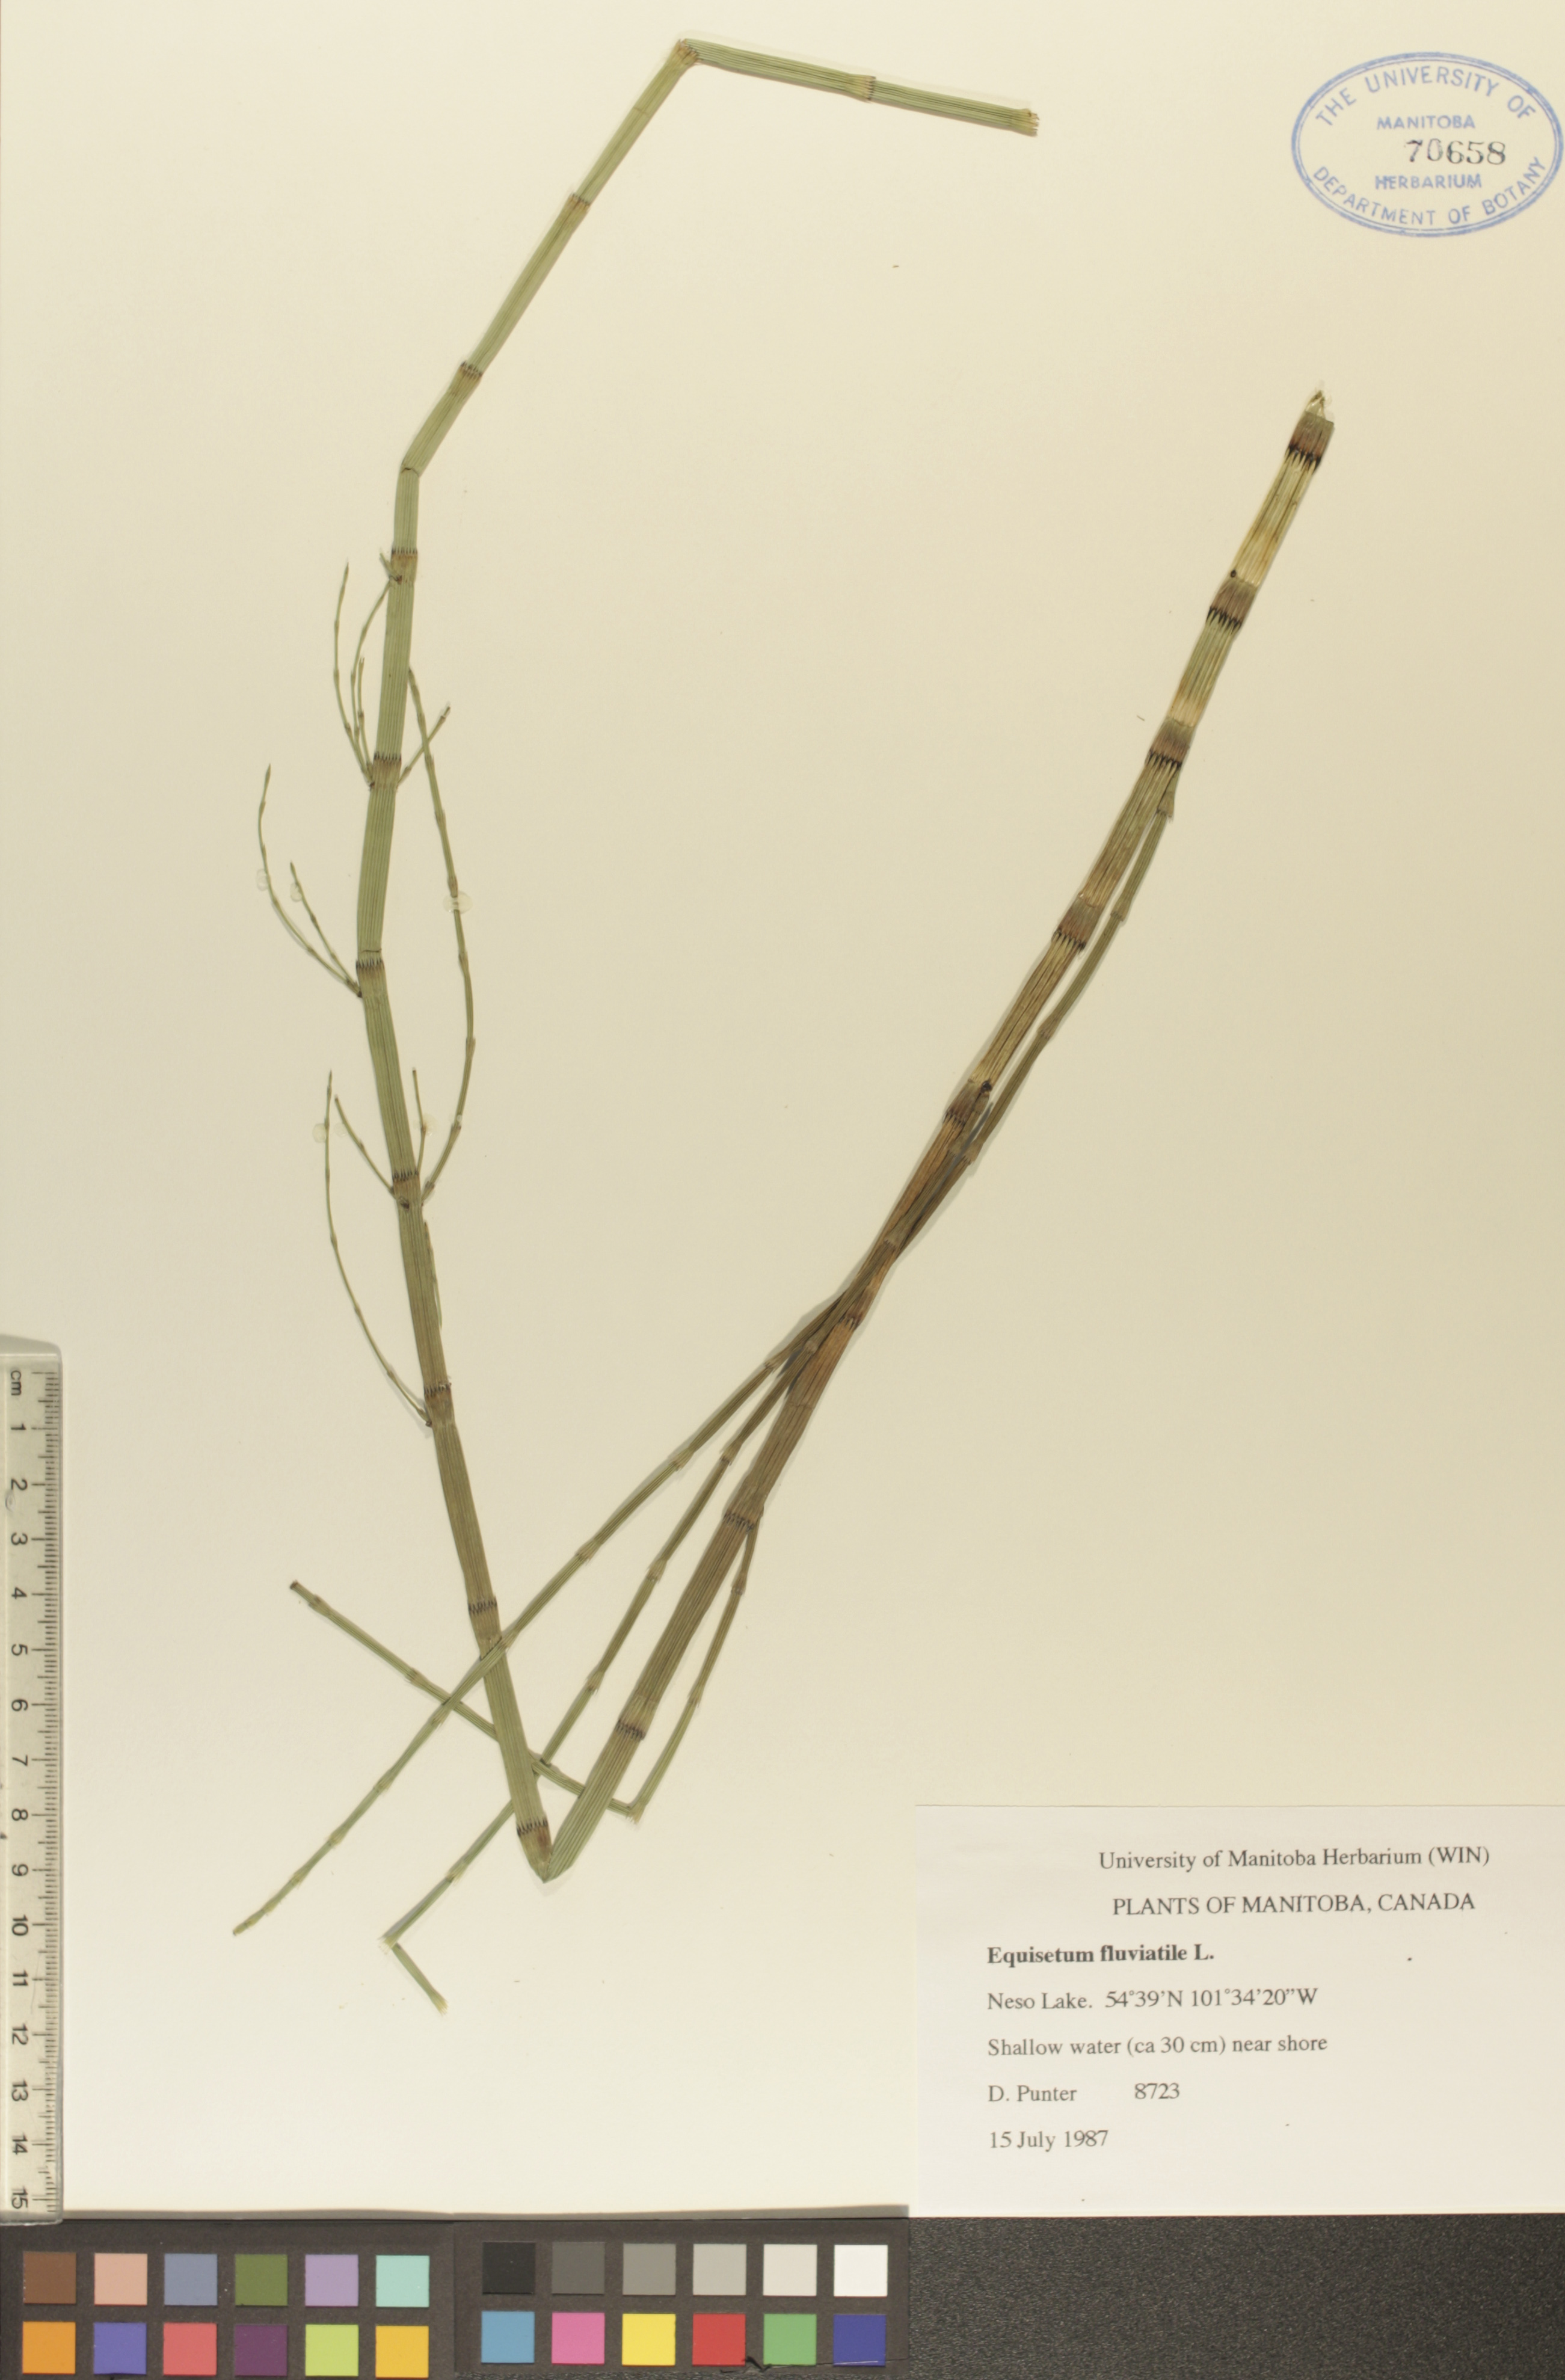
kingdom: Plantae
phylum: Tracheophyta
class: Polypodiopsida
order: Equisetales
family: Equisetaceae
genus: Equisetum
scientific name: Equisetum fluviatile
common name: Water horsetail
